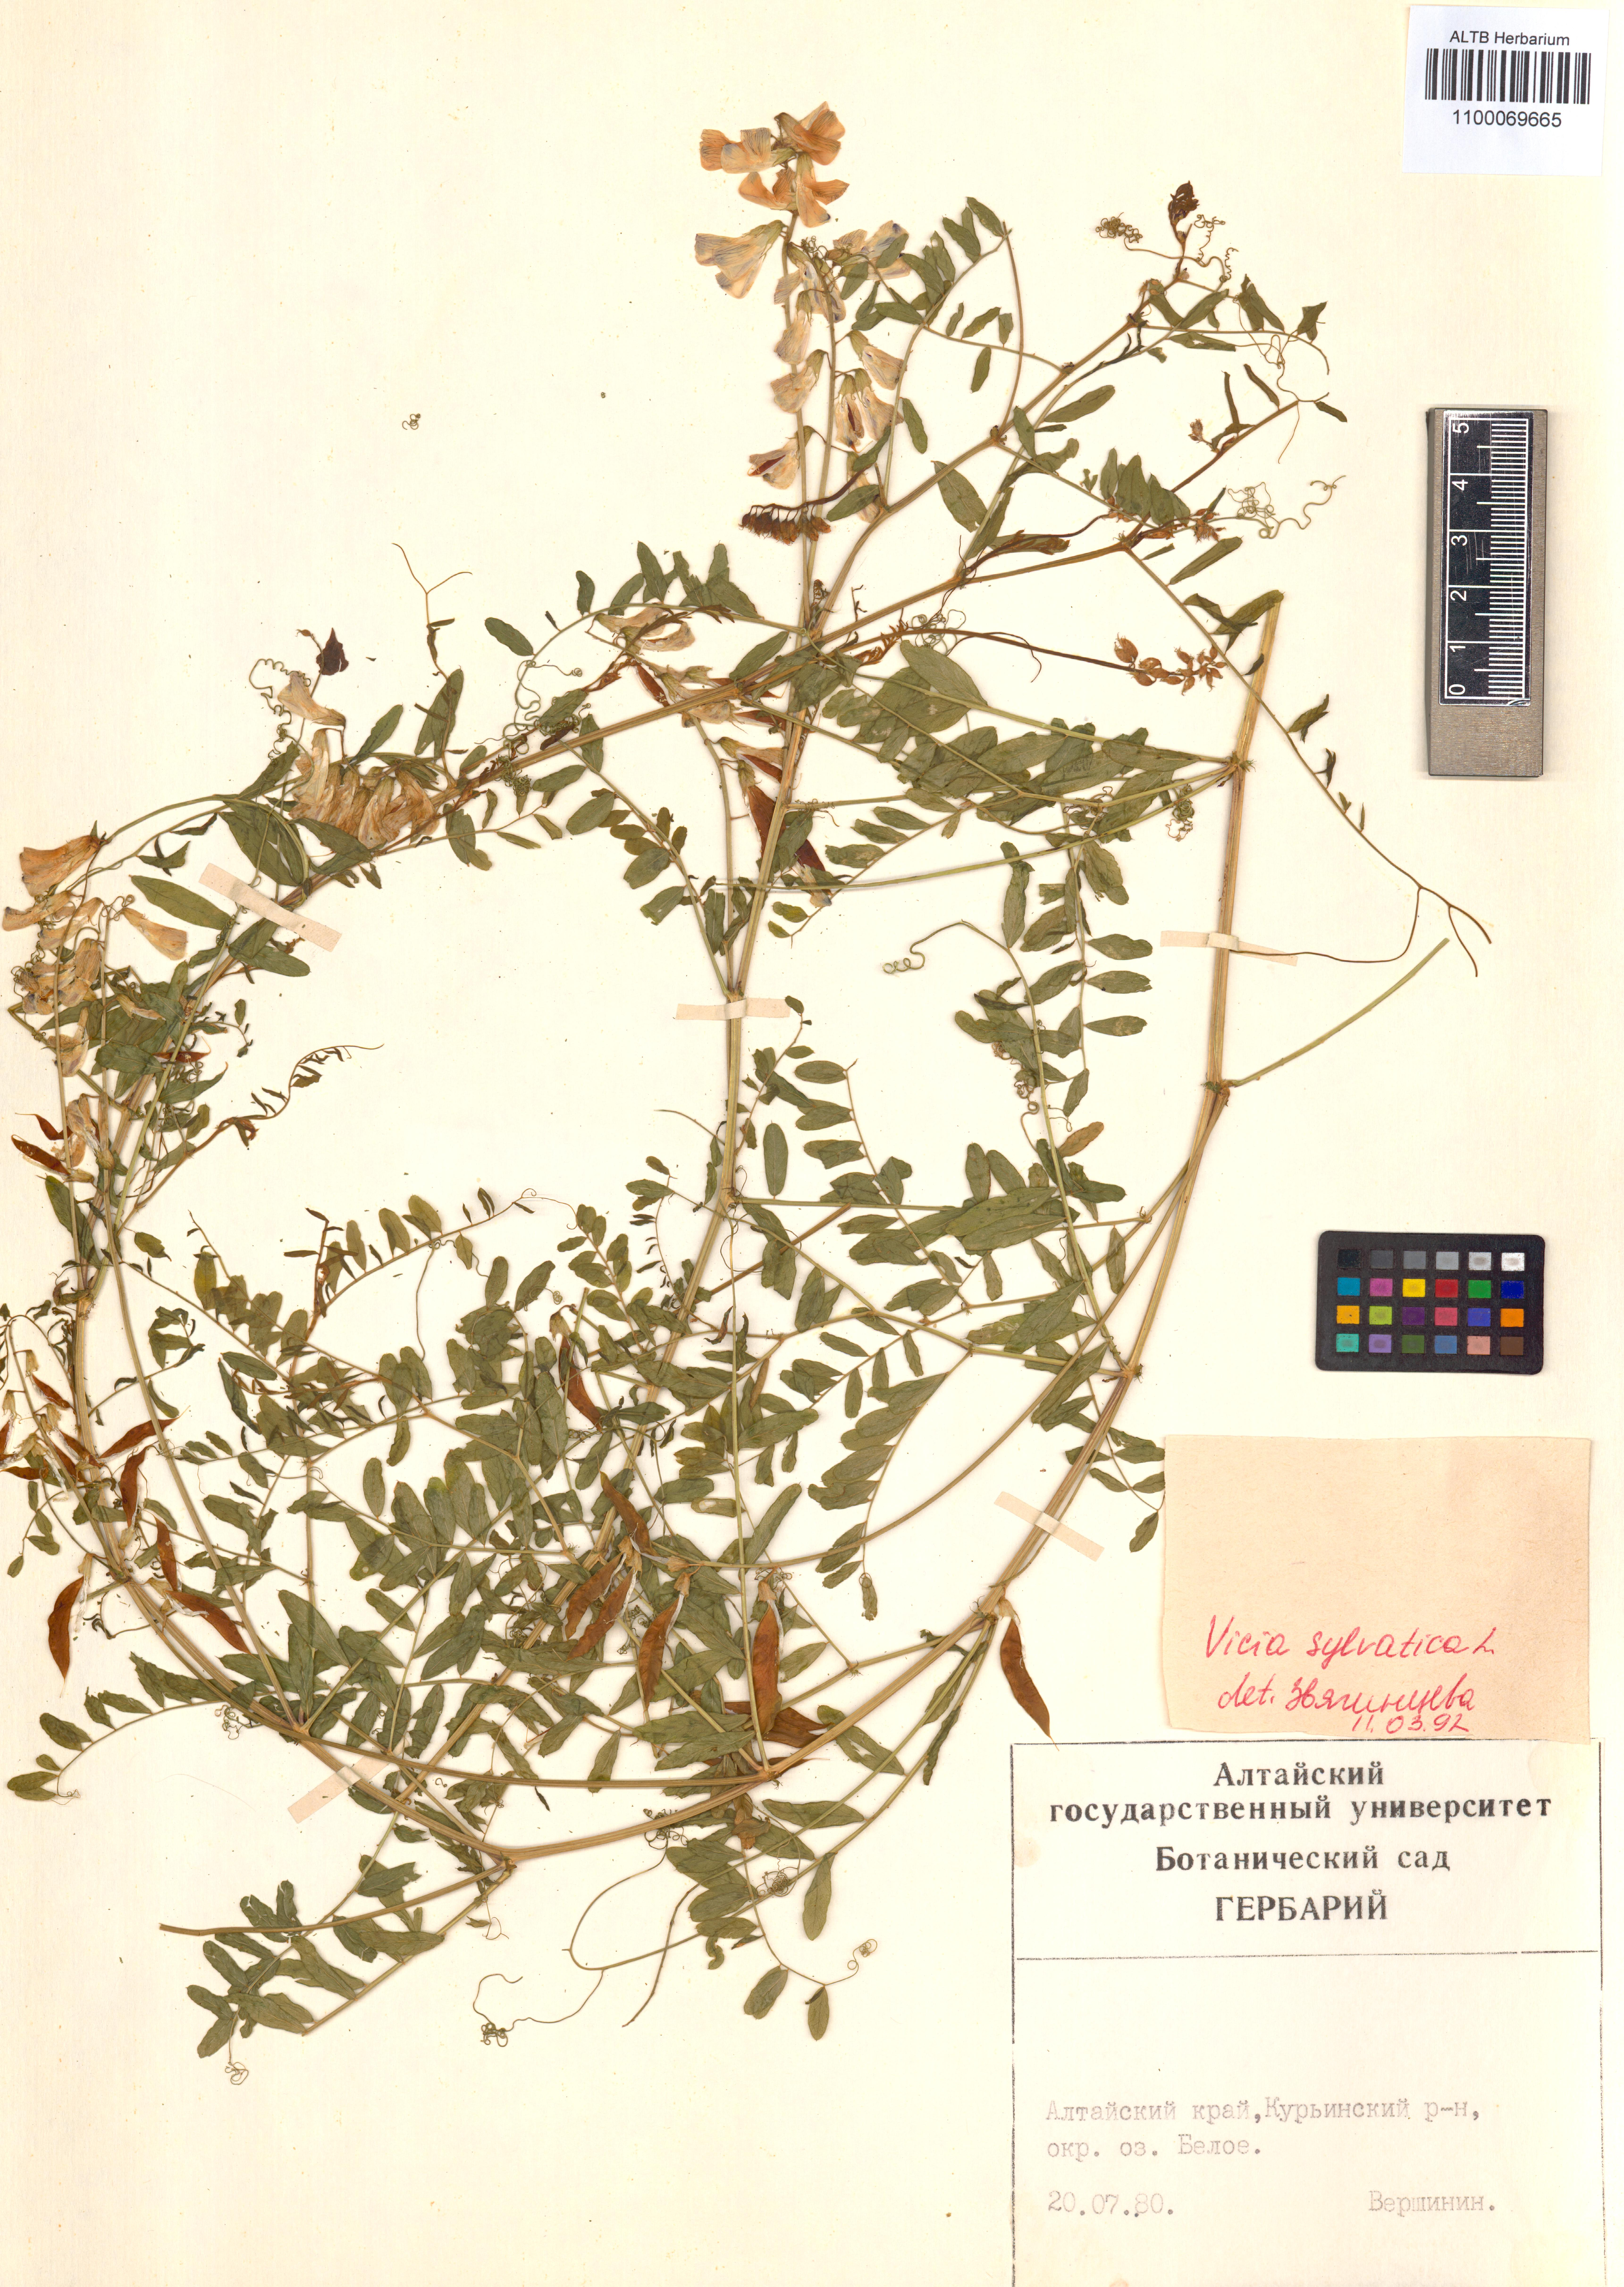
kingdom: Plantae
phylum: Tracheophyta
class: Magnoliopsida
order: Fabales
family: Fabaceae
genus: Vicia
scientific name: Vicia bakeri
